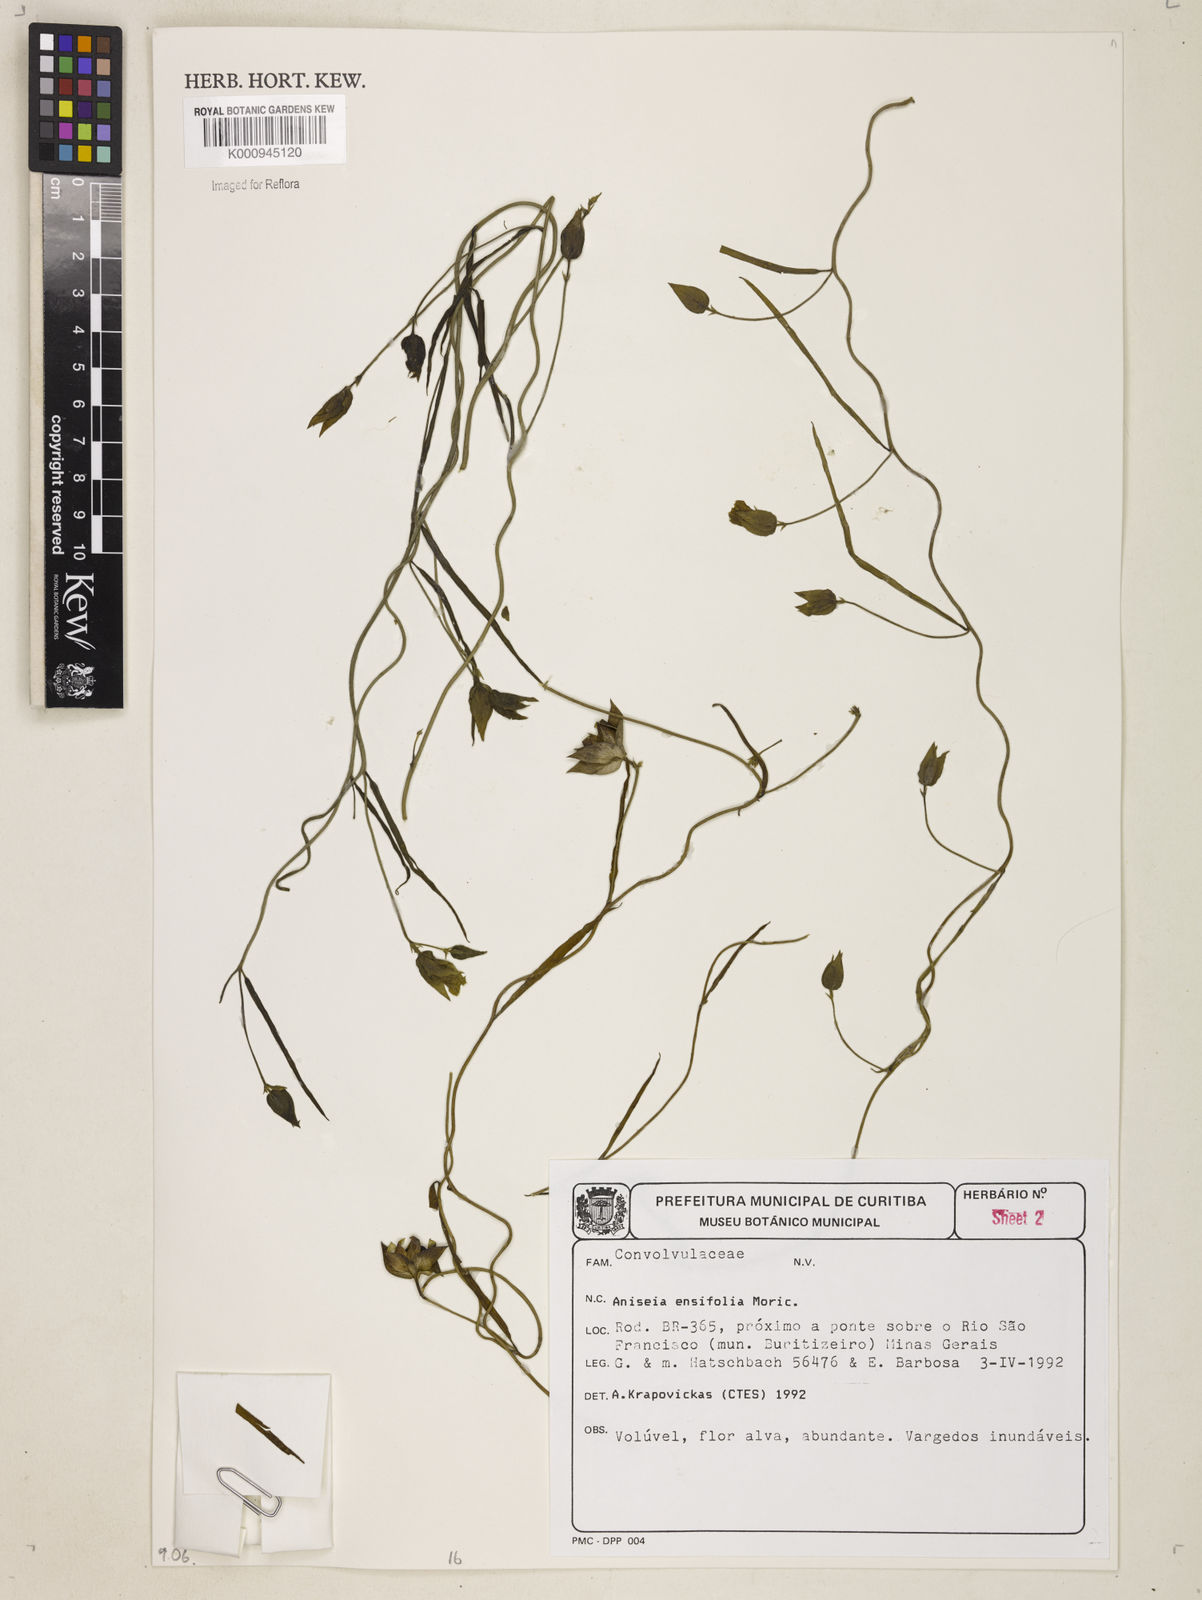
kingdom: Plantae
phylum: Tracheophyta
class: Magnoliopsida
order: Solanales
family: Convolvulaceae
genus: Aniseia
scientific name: Aniseia
